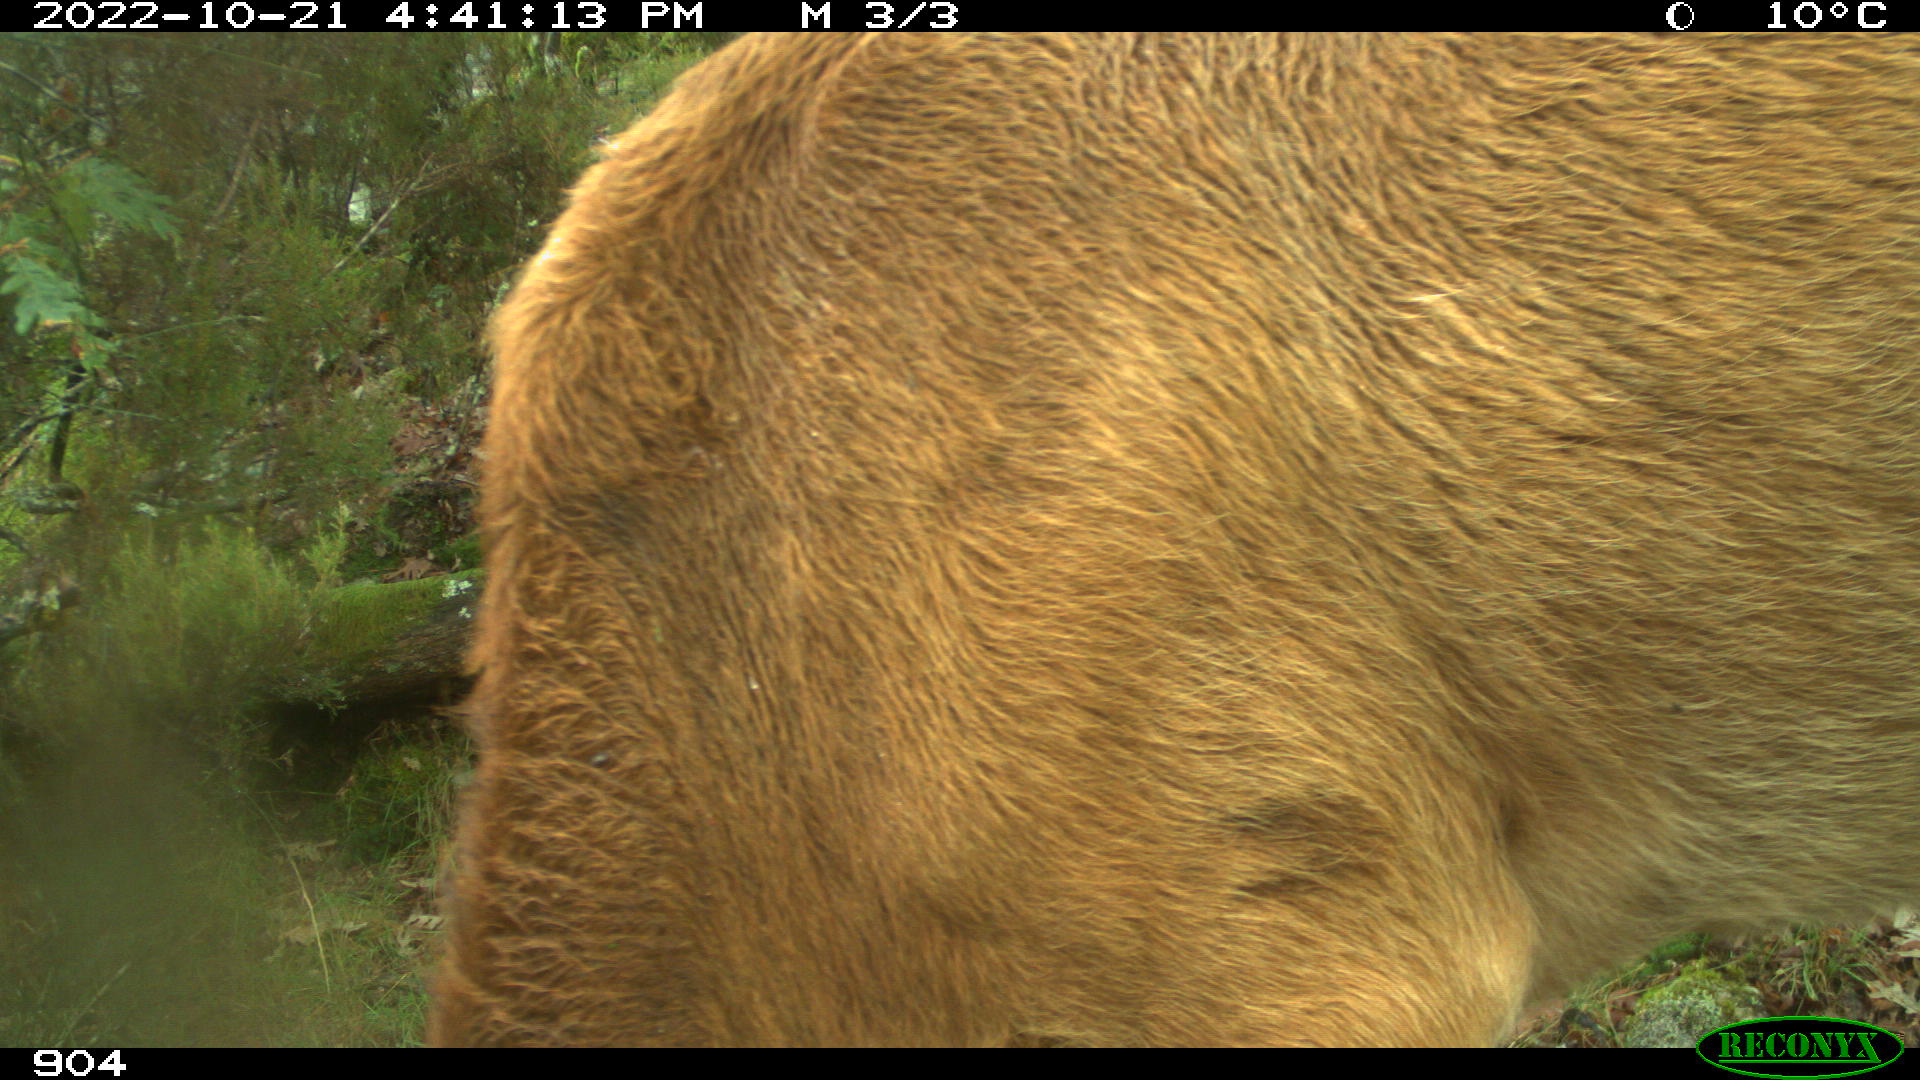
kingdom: Animalia
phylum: Chordata
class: Mammalia
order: Artiodactyla
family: Bovidae
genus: Bos
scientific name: Bos taurus
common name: Domesticated cattle
